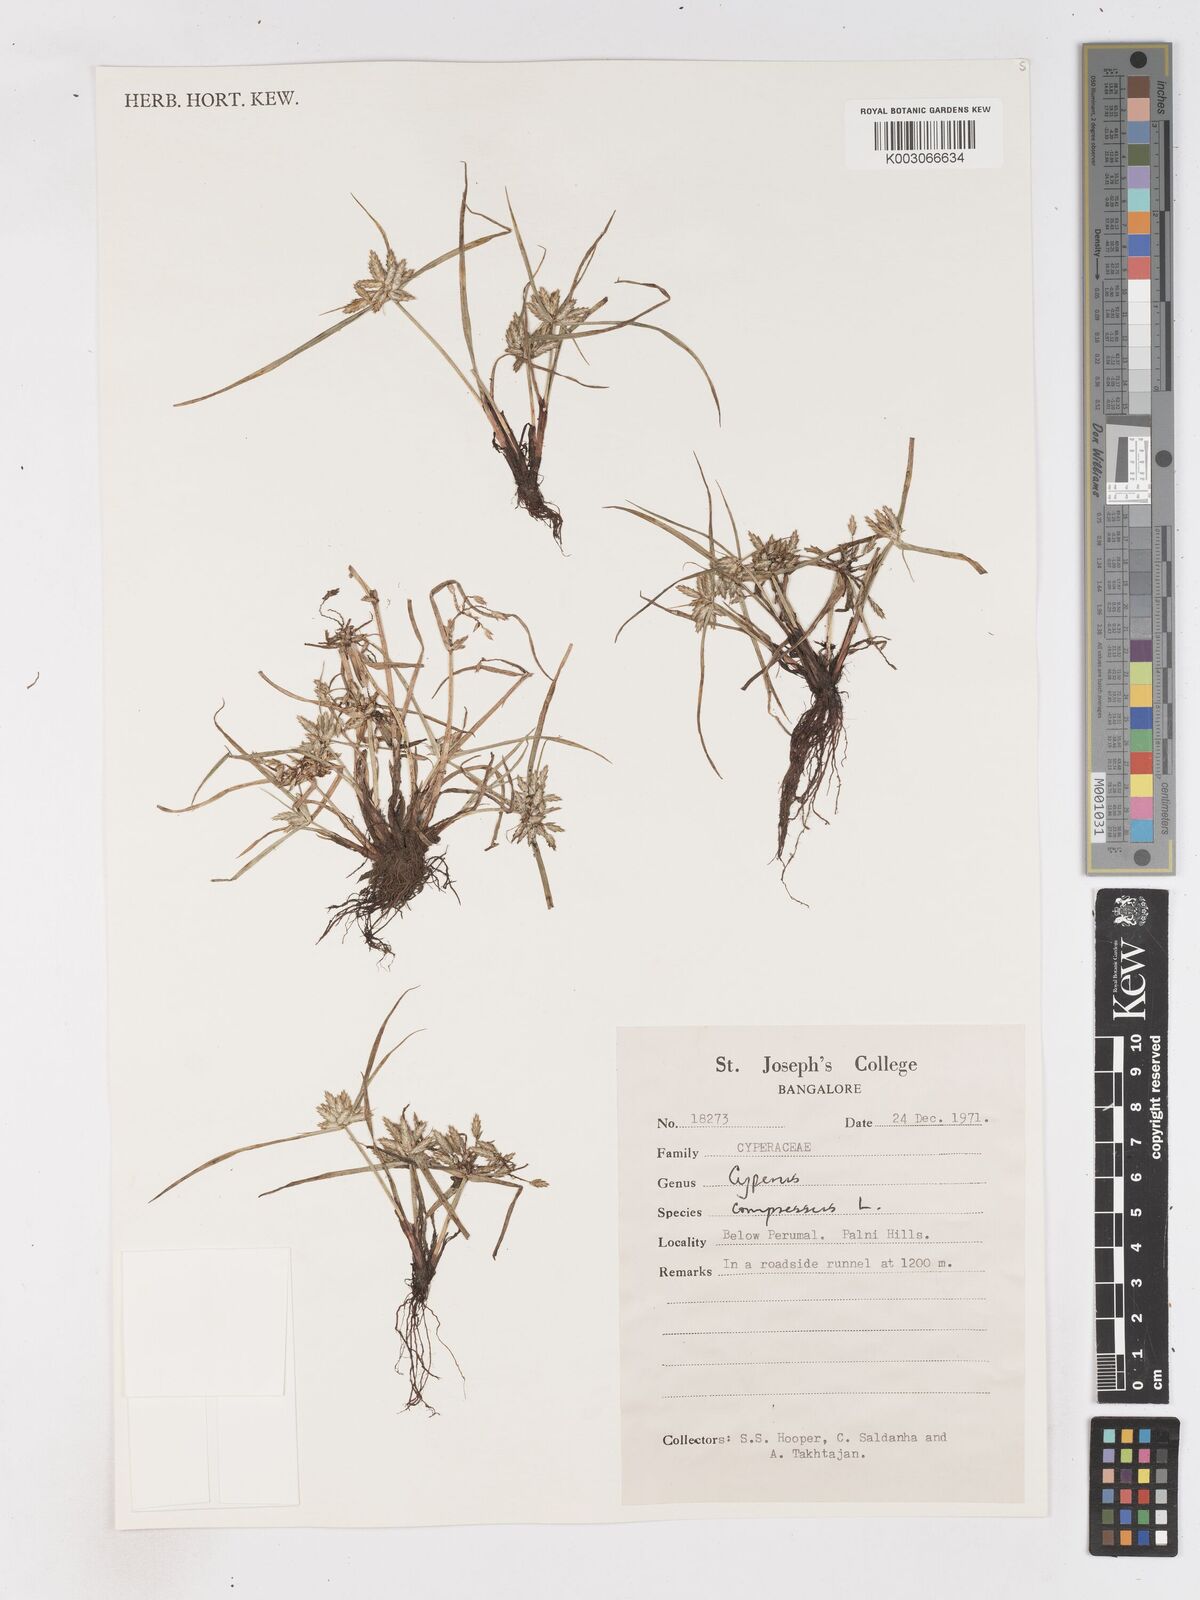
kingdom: Plantae
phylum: Tracheophyta
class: Liliopsida
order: Poales
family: Cyperaceae
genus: Cyperus
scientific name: Cyperus compressus
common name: Poorland flatsedge
